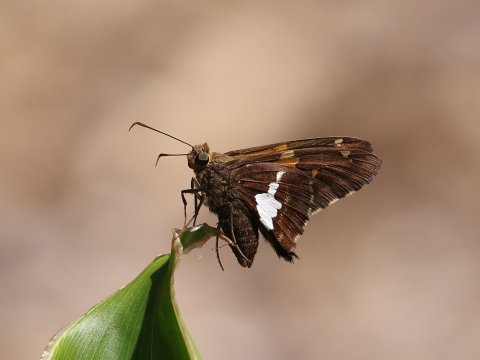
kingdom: Animalia
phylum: Arthropoda
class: Insecta
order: Lepidoptera
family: Hesperiidae
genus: Epargyreus
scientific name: Epargyreus clarus
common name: Silver-spotted Skipper
